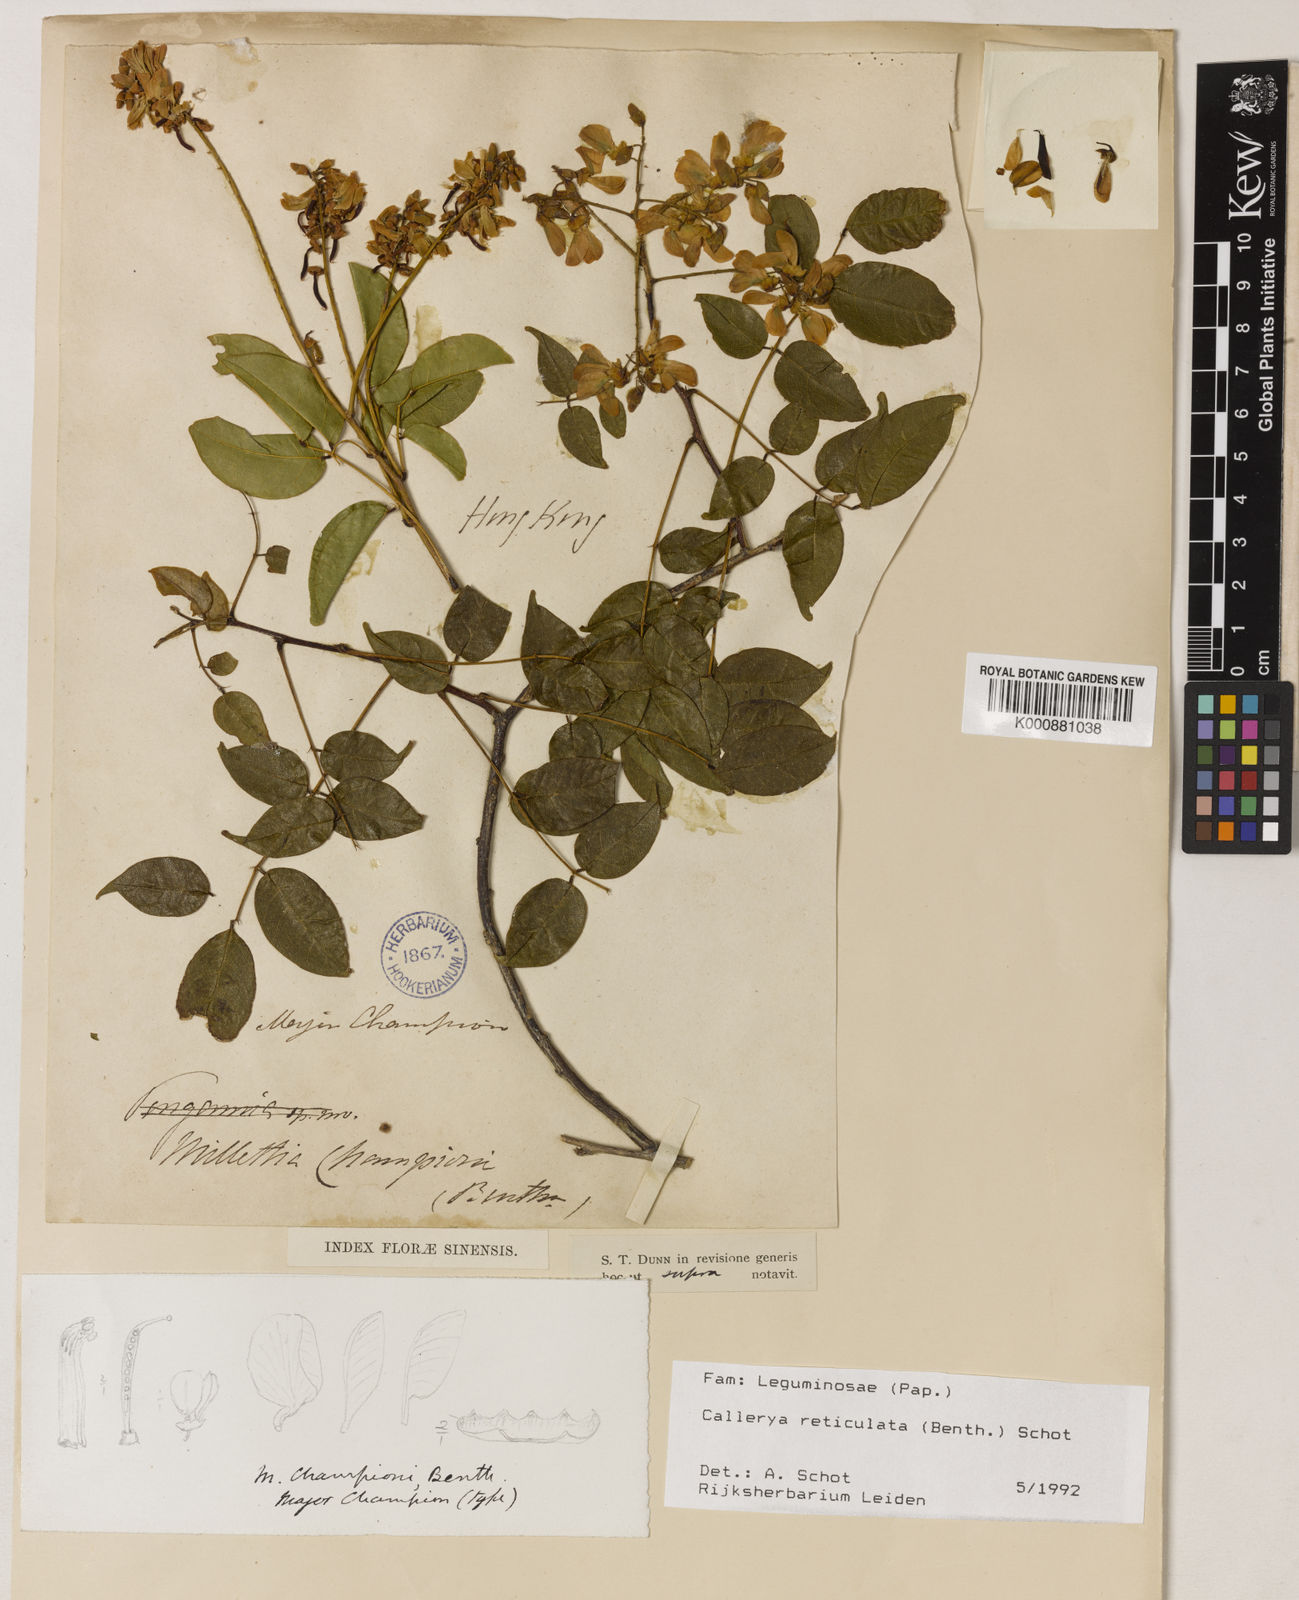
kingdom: Plantae
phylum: Tracheophyta
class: Magnoliopsida
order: Fabales
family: Fabaceae
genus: Wisteriopsis
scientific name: Wisteriopsis reticulata
